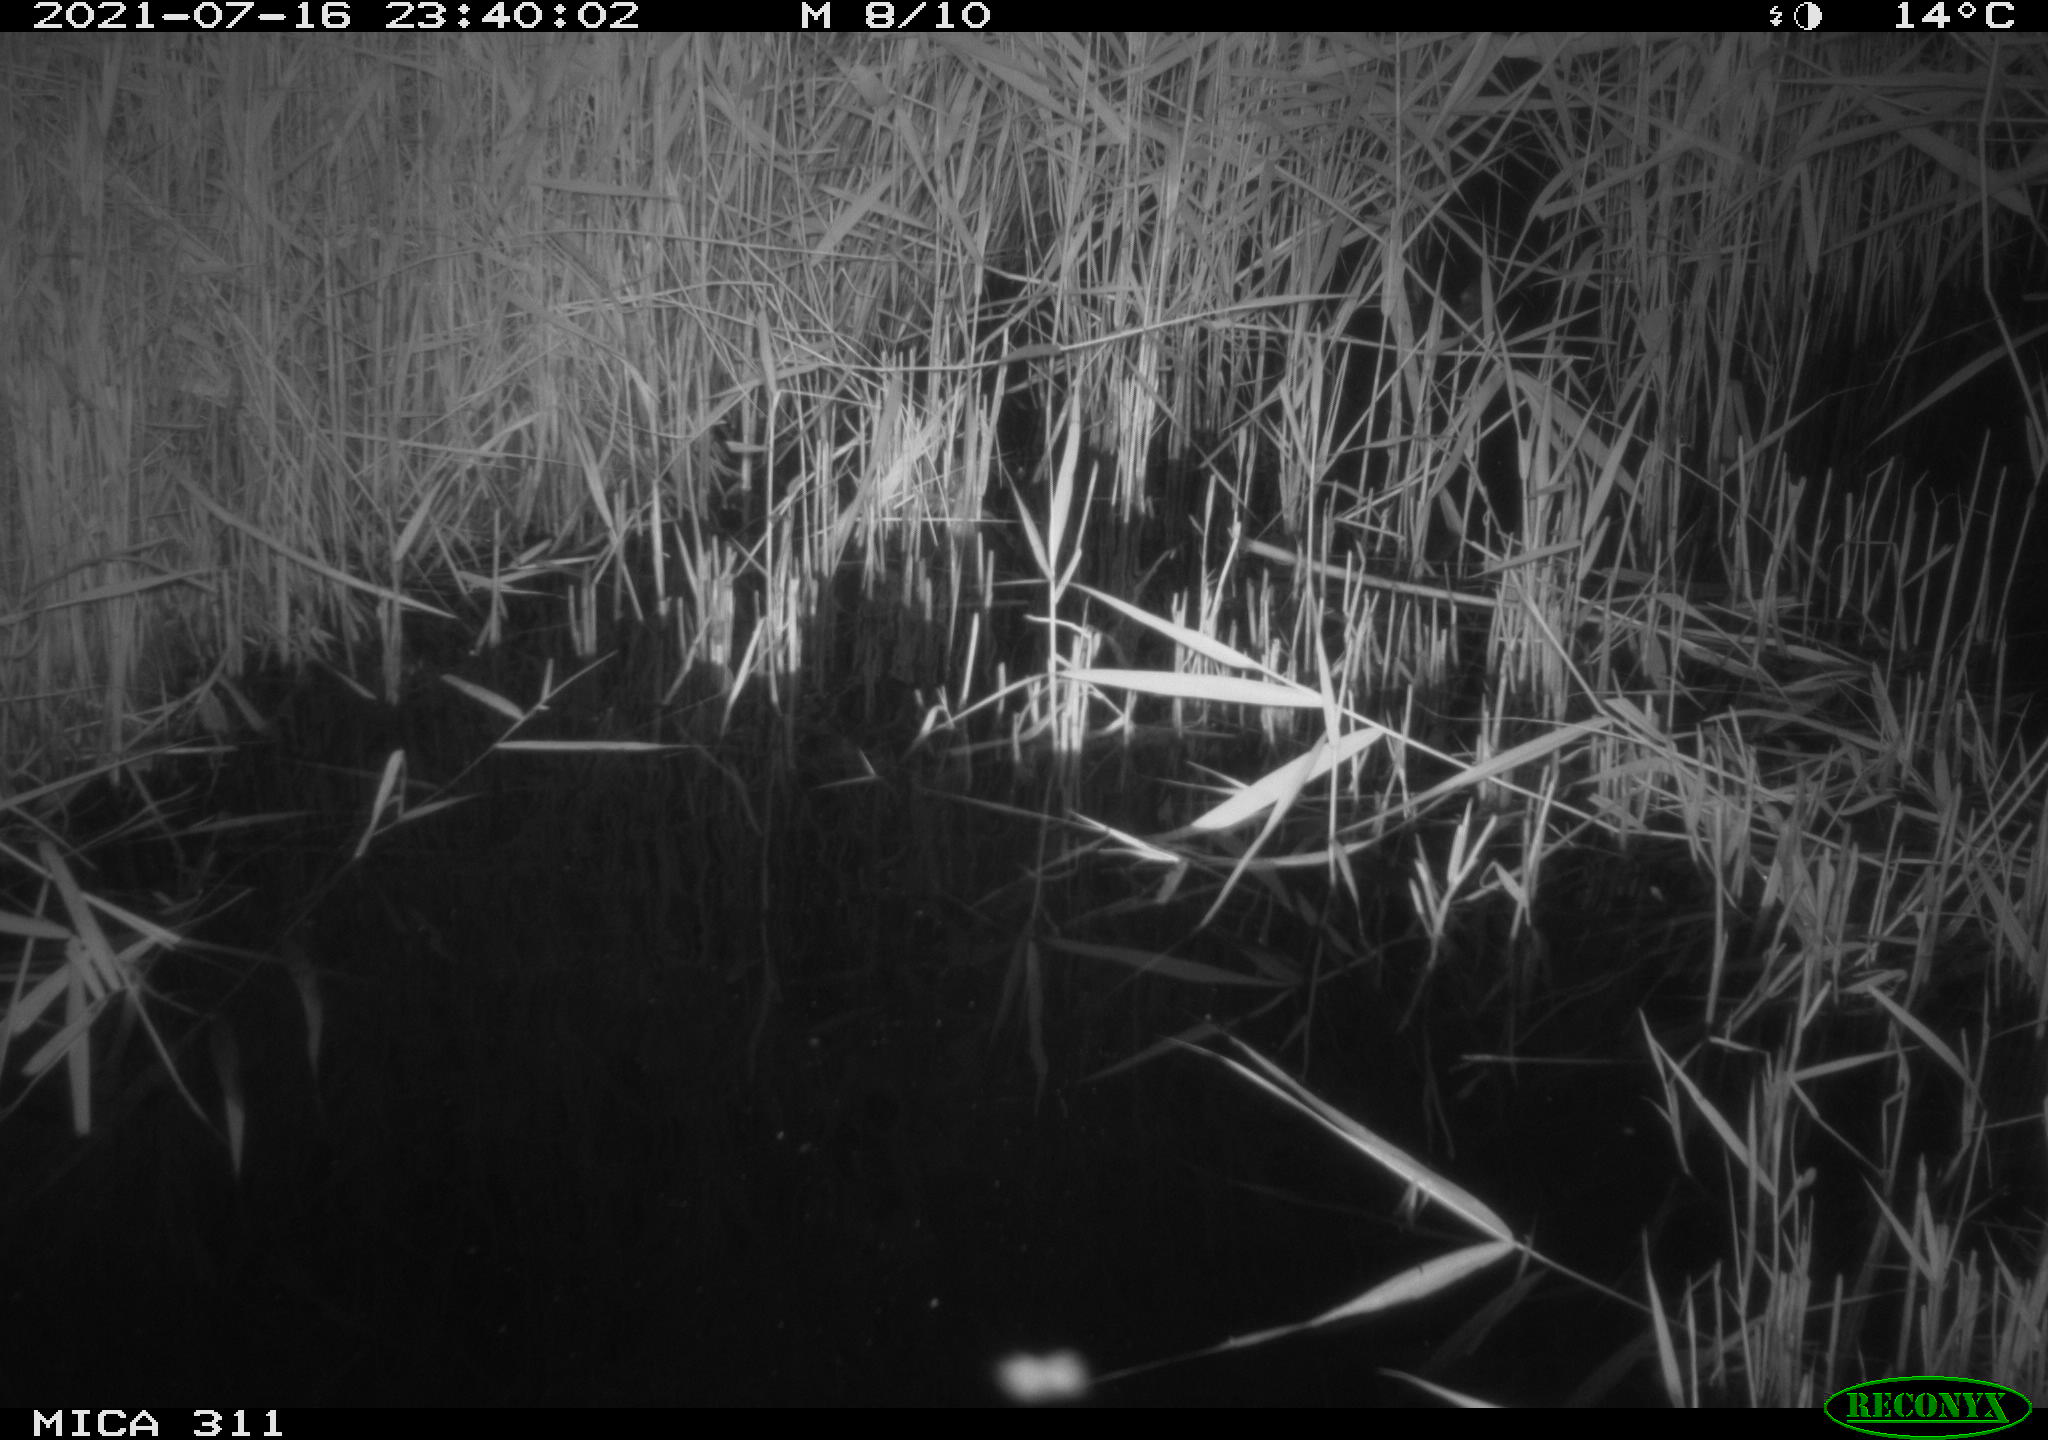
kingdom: Animalia
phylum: Chordata
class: Mammalia
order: Rodentia
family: Muridae
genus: Rattus
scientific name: Rattus norvegicus
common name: Brown rat
